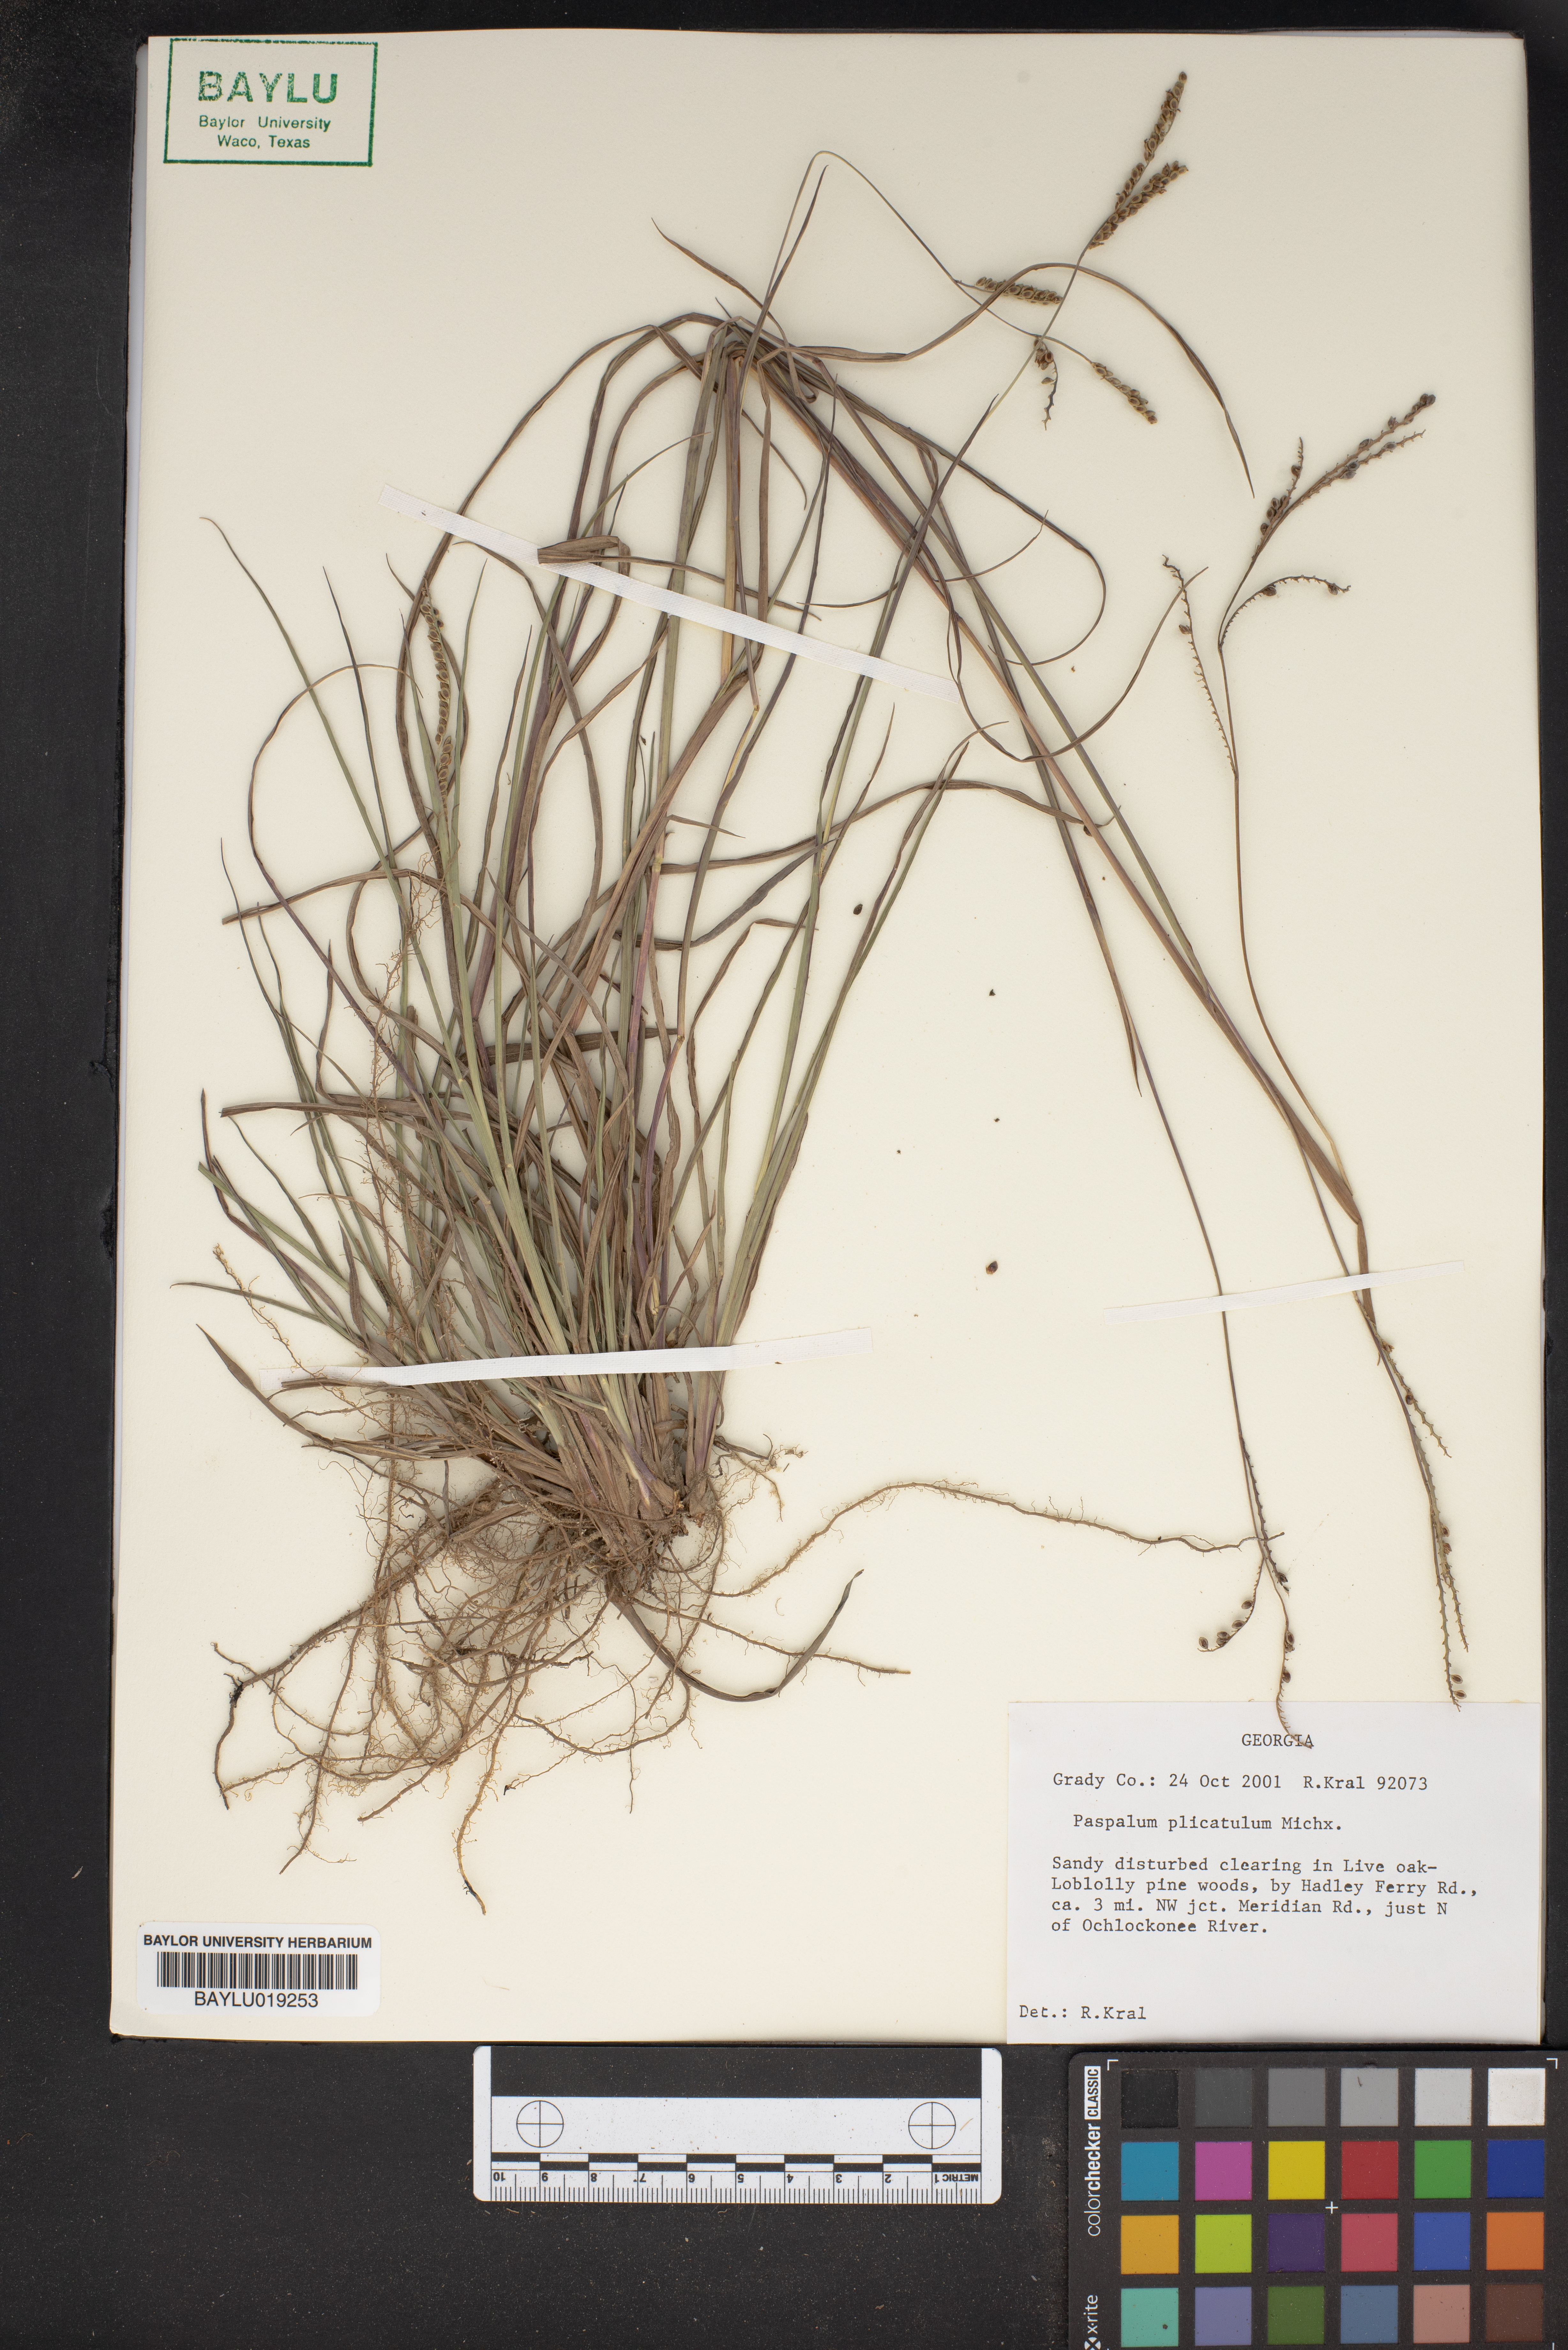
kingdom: Plantae
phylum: Tracheophyta
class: Liliopsida
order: Poales
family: Poaceae
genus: Paspalum
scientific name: Paspalum plicatulum
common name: Top paspalum
